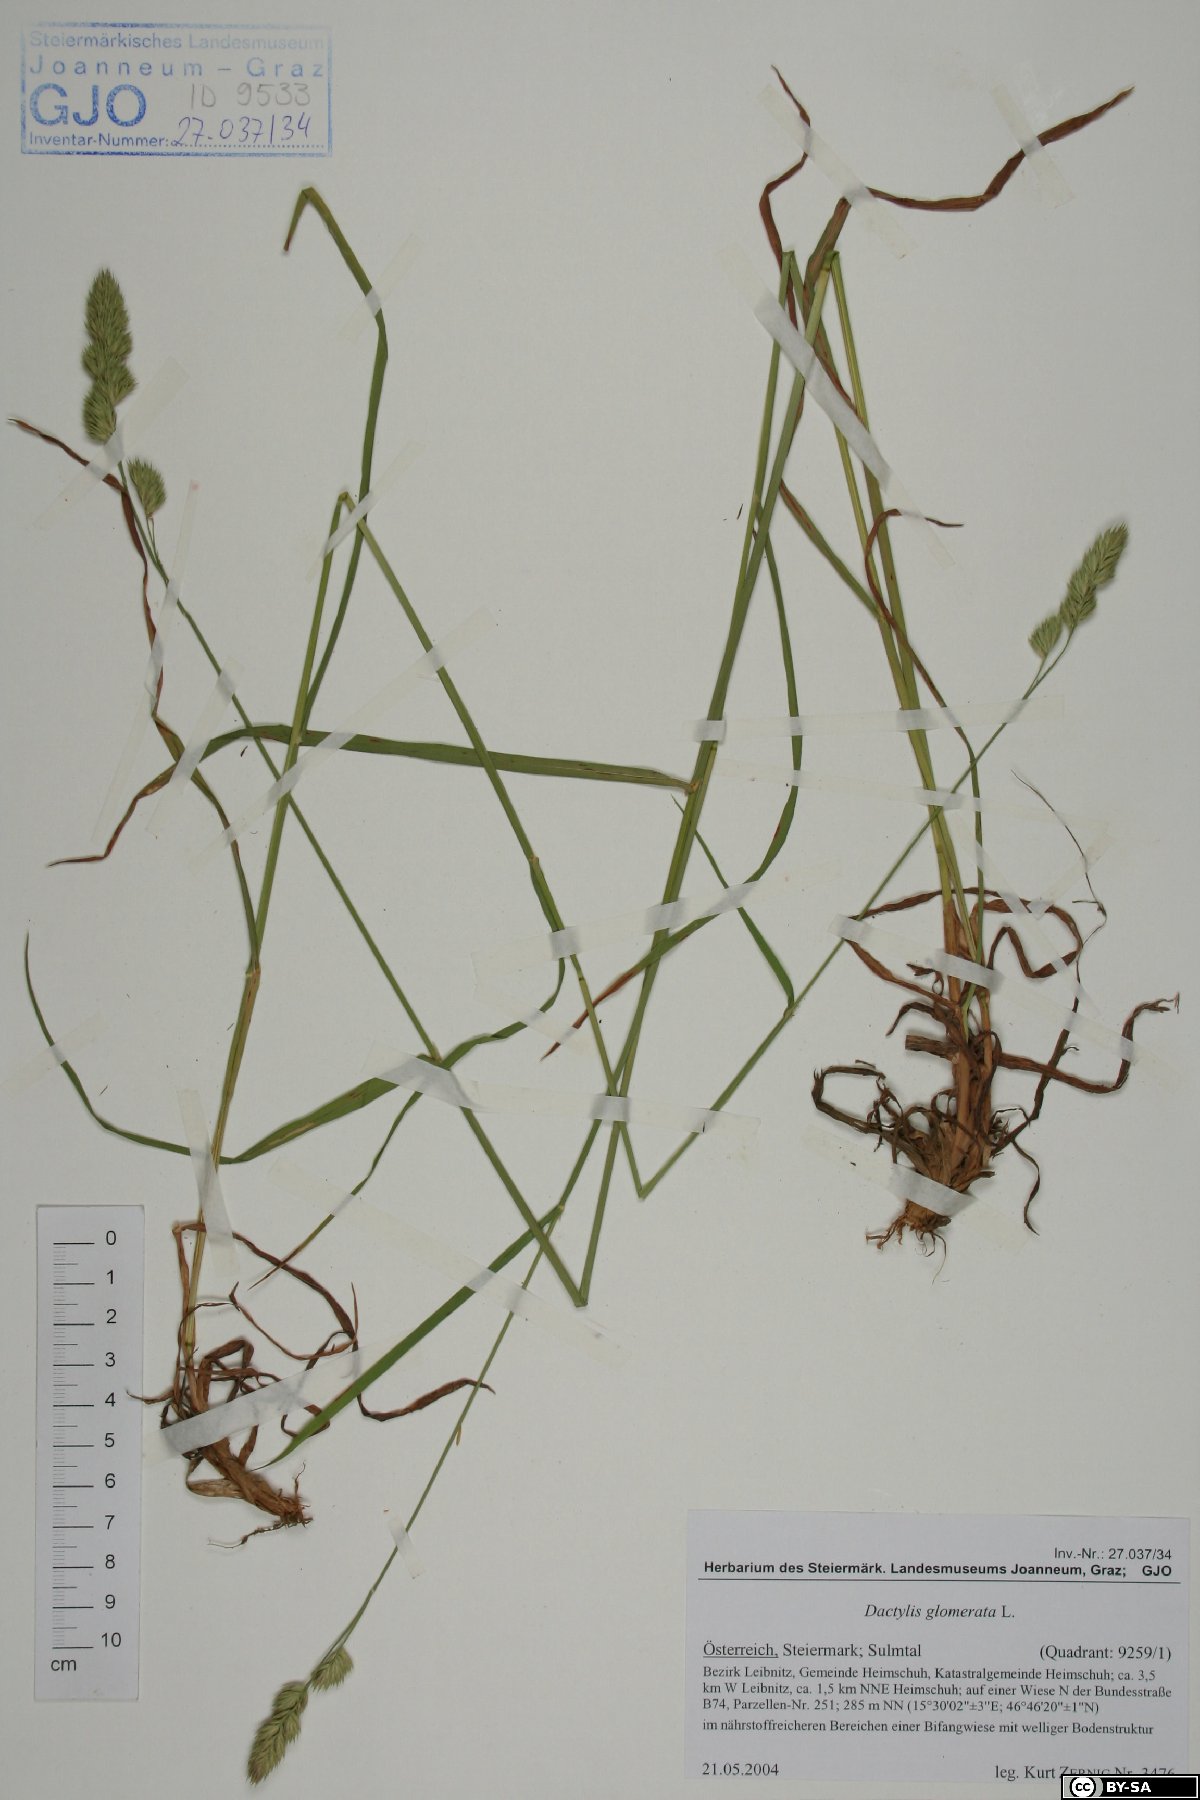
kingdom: Plantae
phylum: Tracheophyta
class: Liliopsida
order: Poales
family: Poaceae
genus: Dactylis
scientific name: Dactylis glomerata
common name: Orchardgrass
